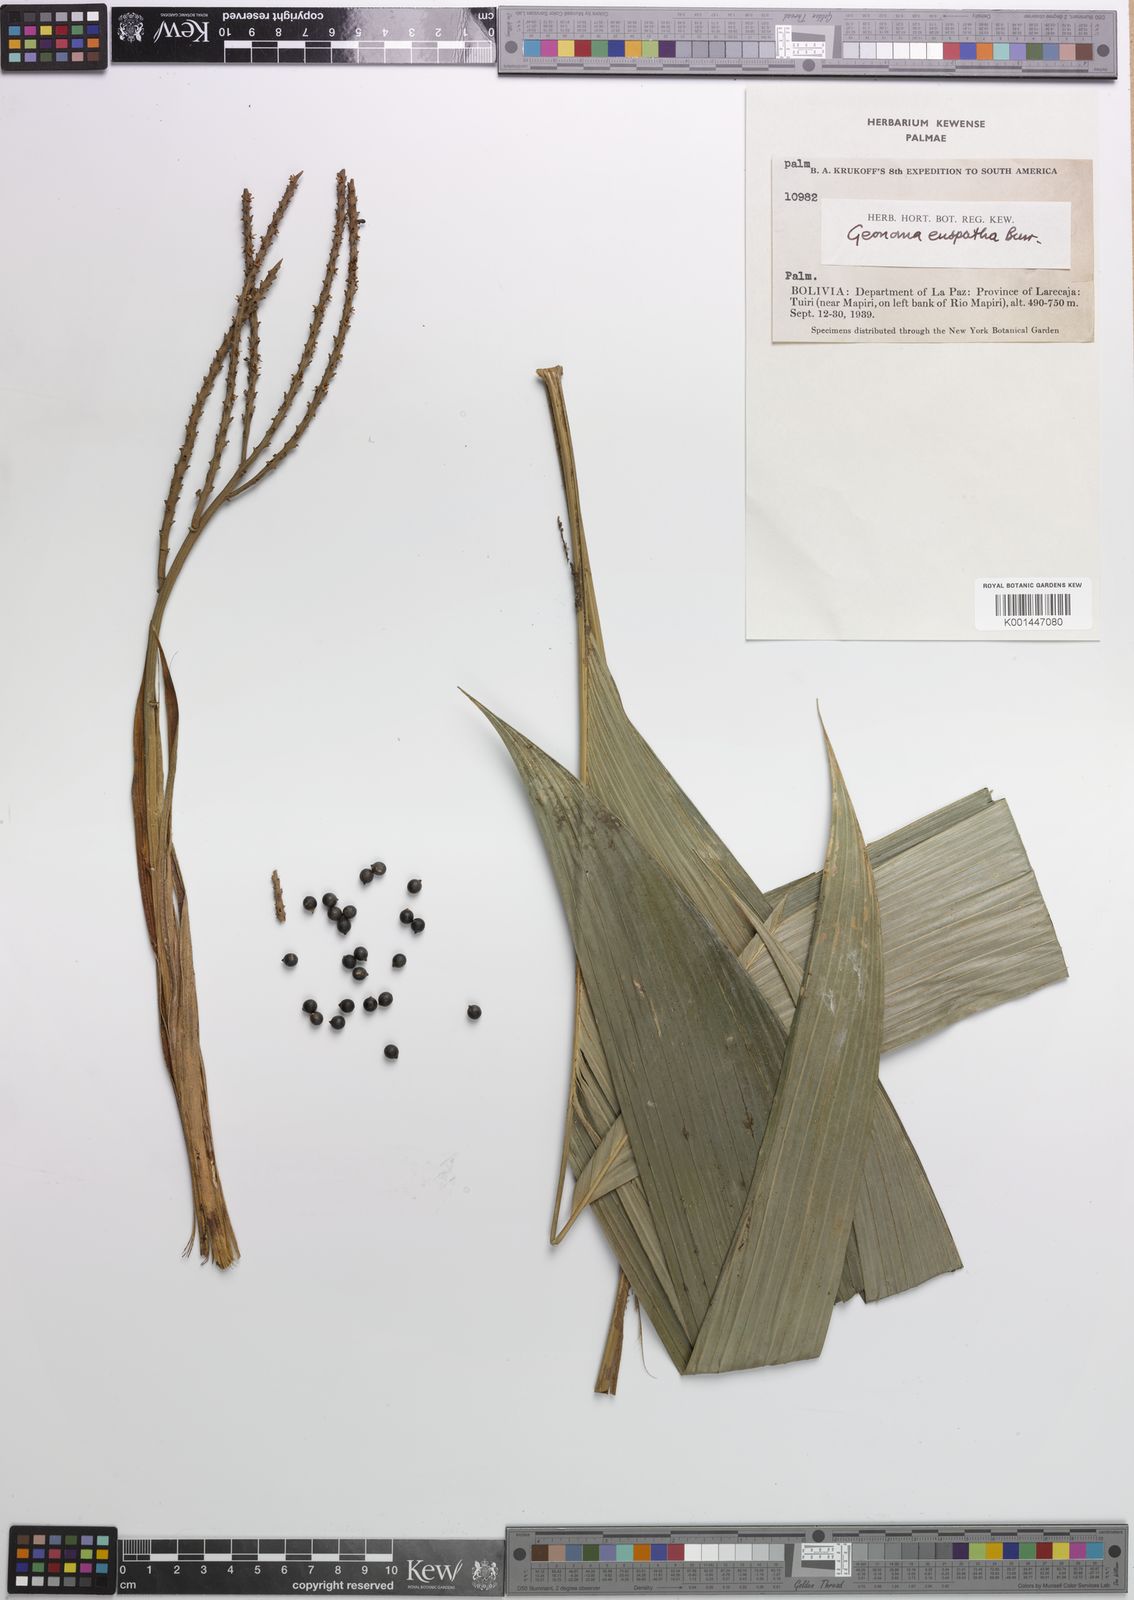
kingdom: Plantae
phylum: Tracheophyta
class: Liliopsida
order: Arecales
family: Arecaceae
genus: Geonoma
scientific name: Geonoma euspatha
